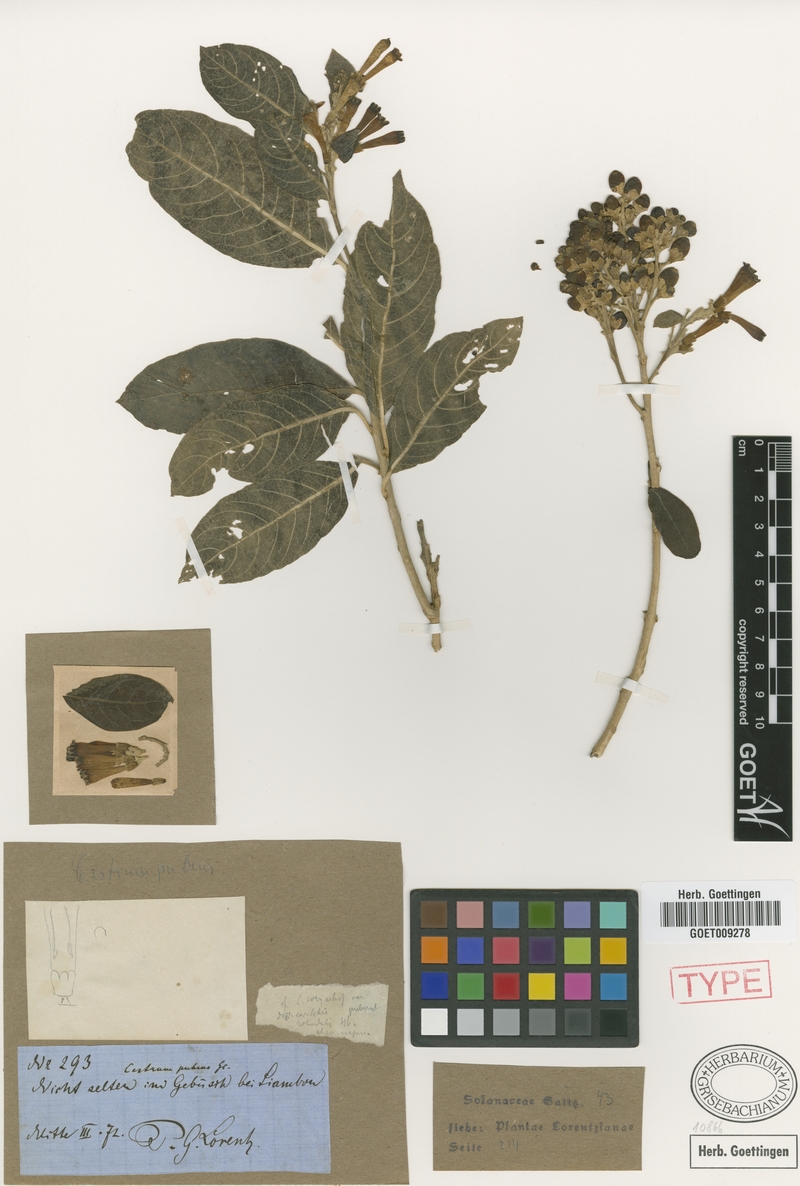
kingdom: Plantae
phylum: Tracheophyta
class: Magnoliopsida
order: Solanales
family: Solanaceae
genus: Cestrum
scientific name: Cestrum lorentzianum
